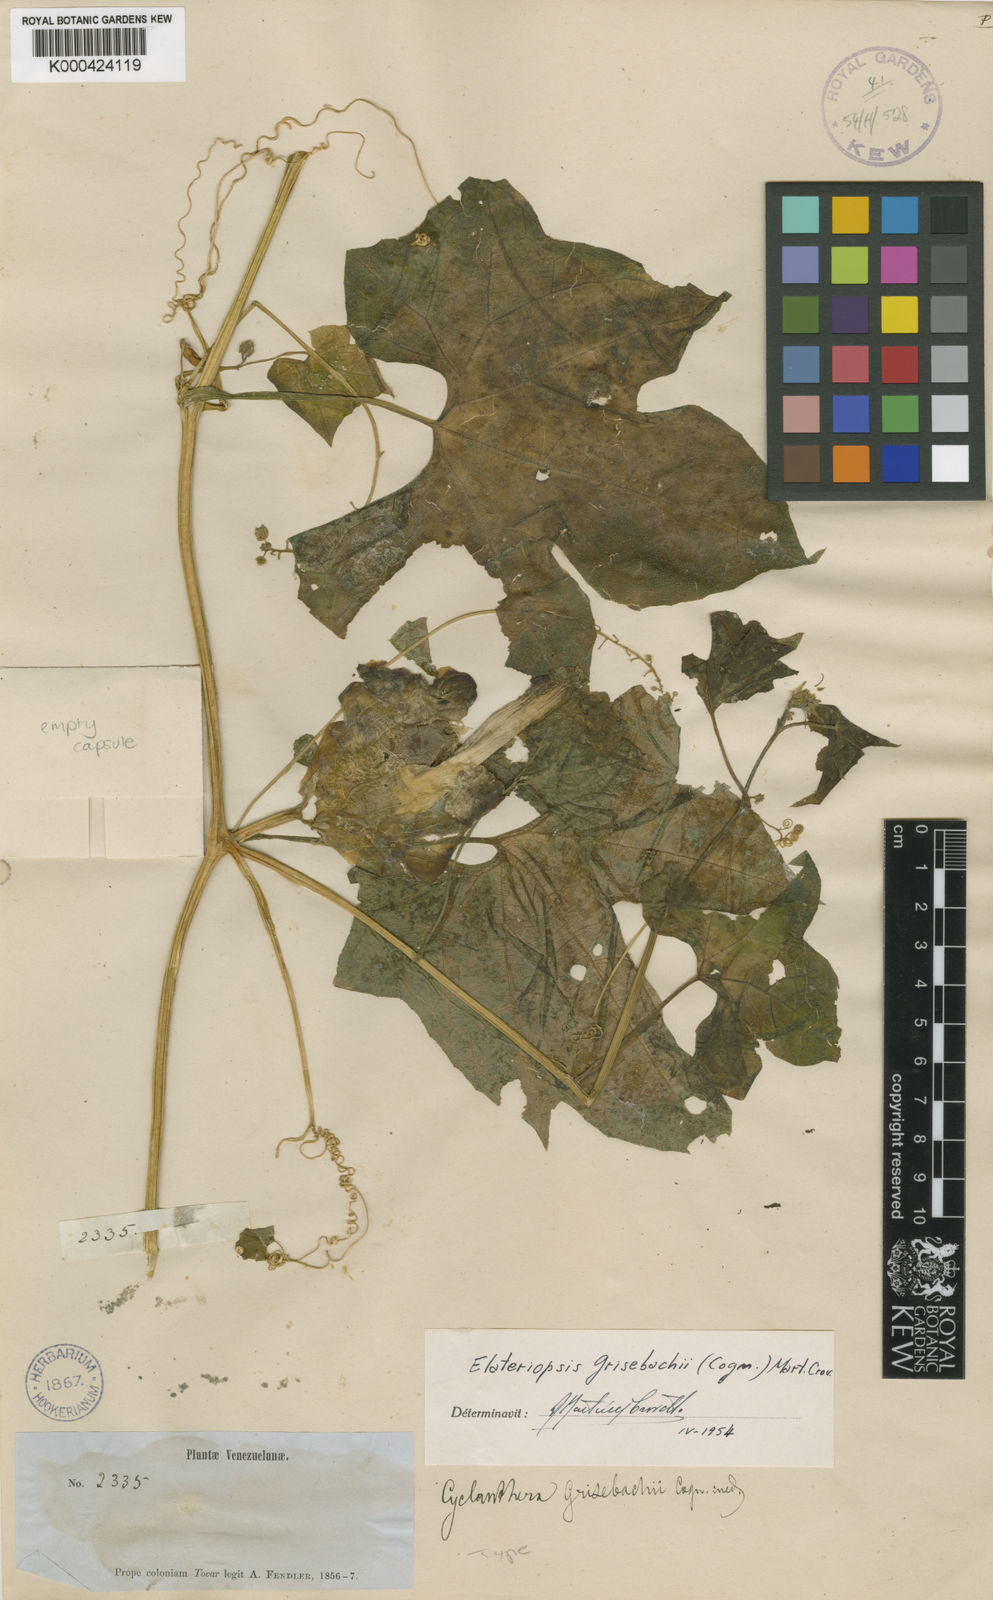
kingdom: Plantae
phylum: Tracheophyta
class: Magnoliopsida
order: Cucurbitales
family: Cucurbitaceae
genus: Hanburia
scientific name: Hanburia caracasana
